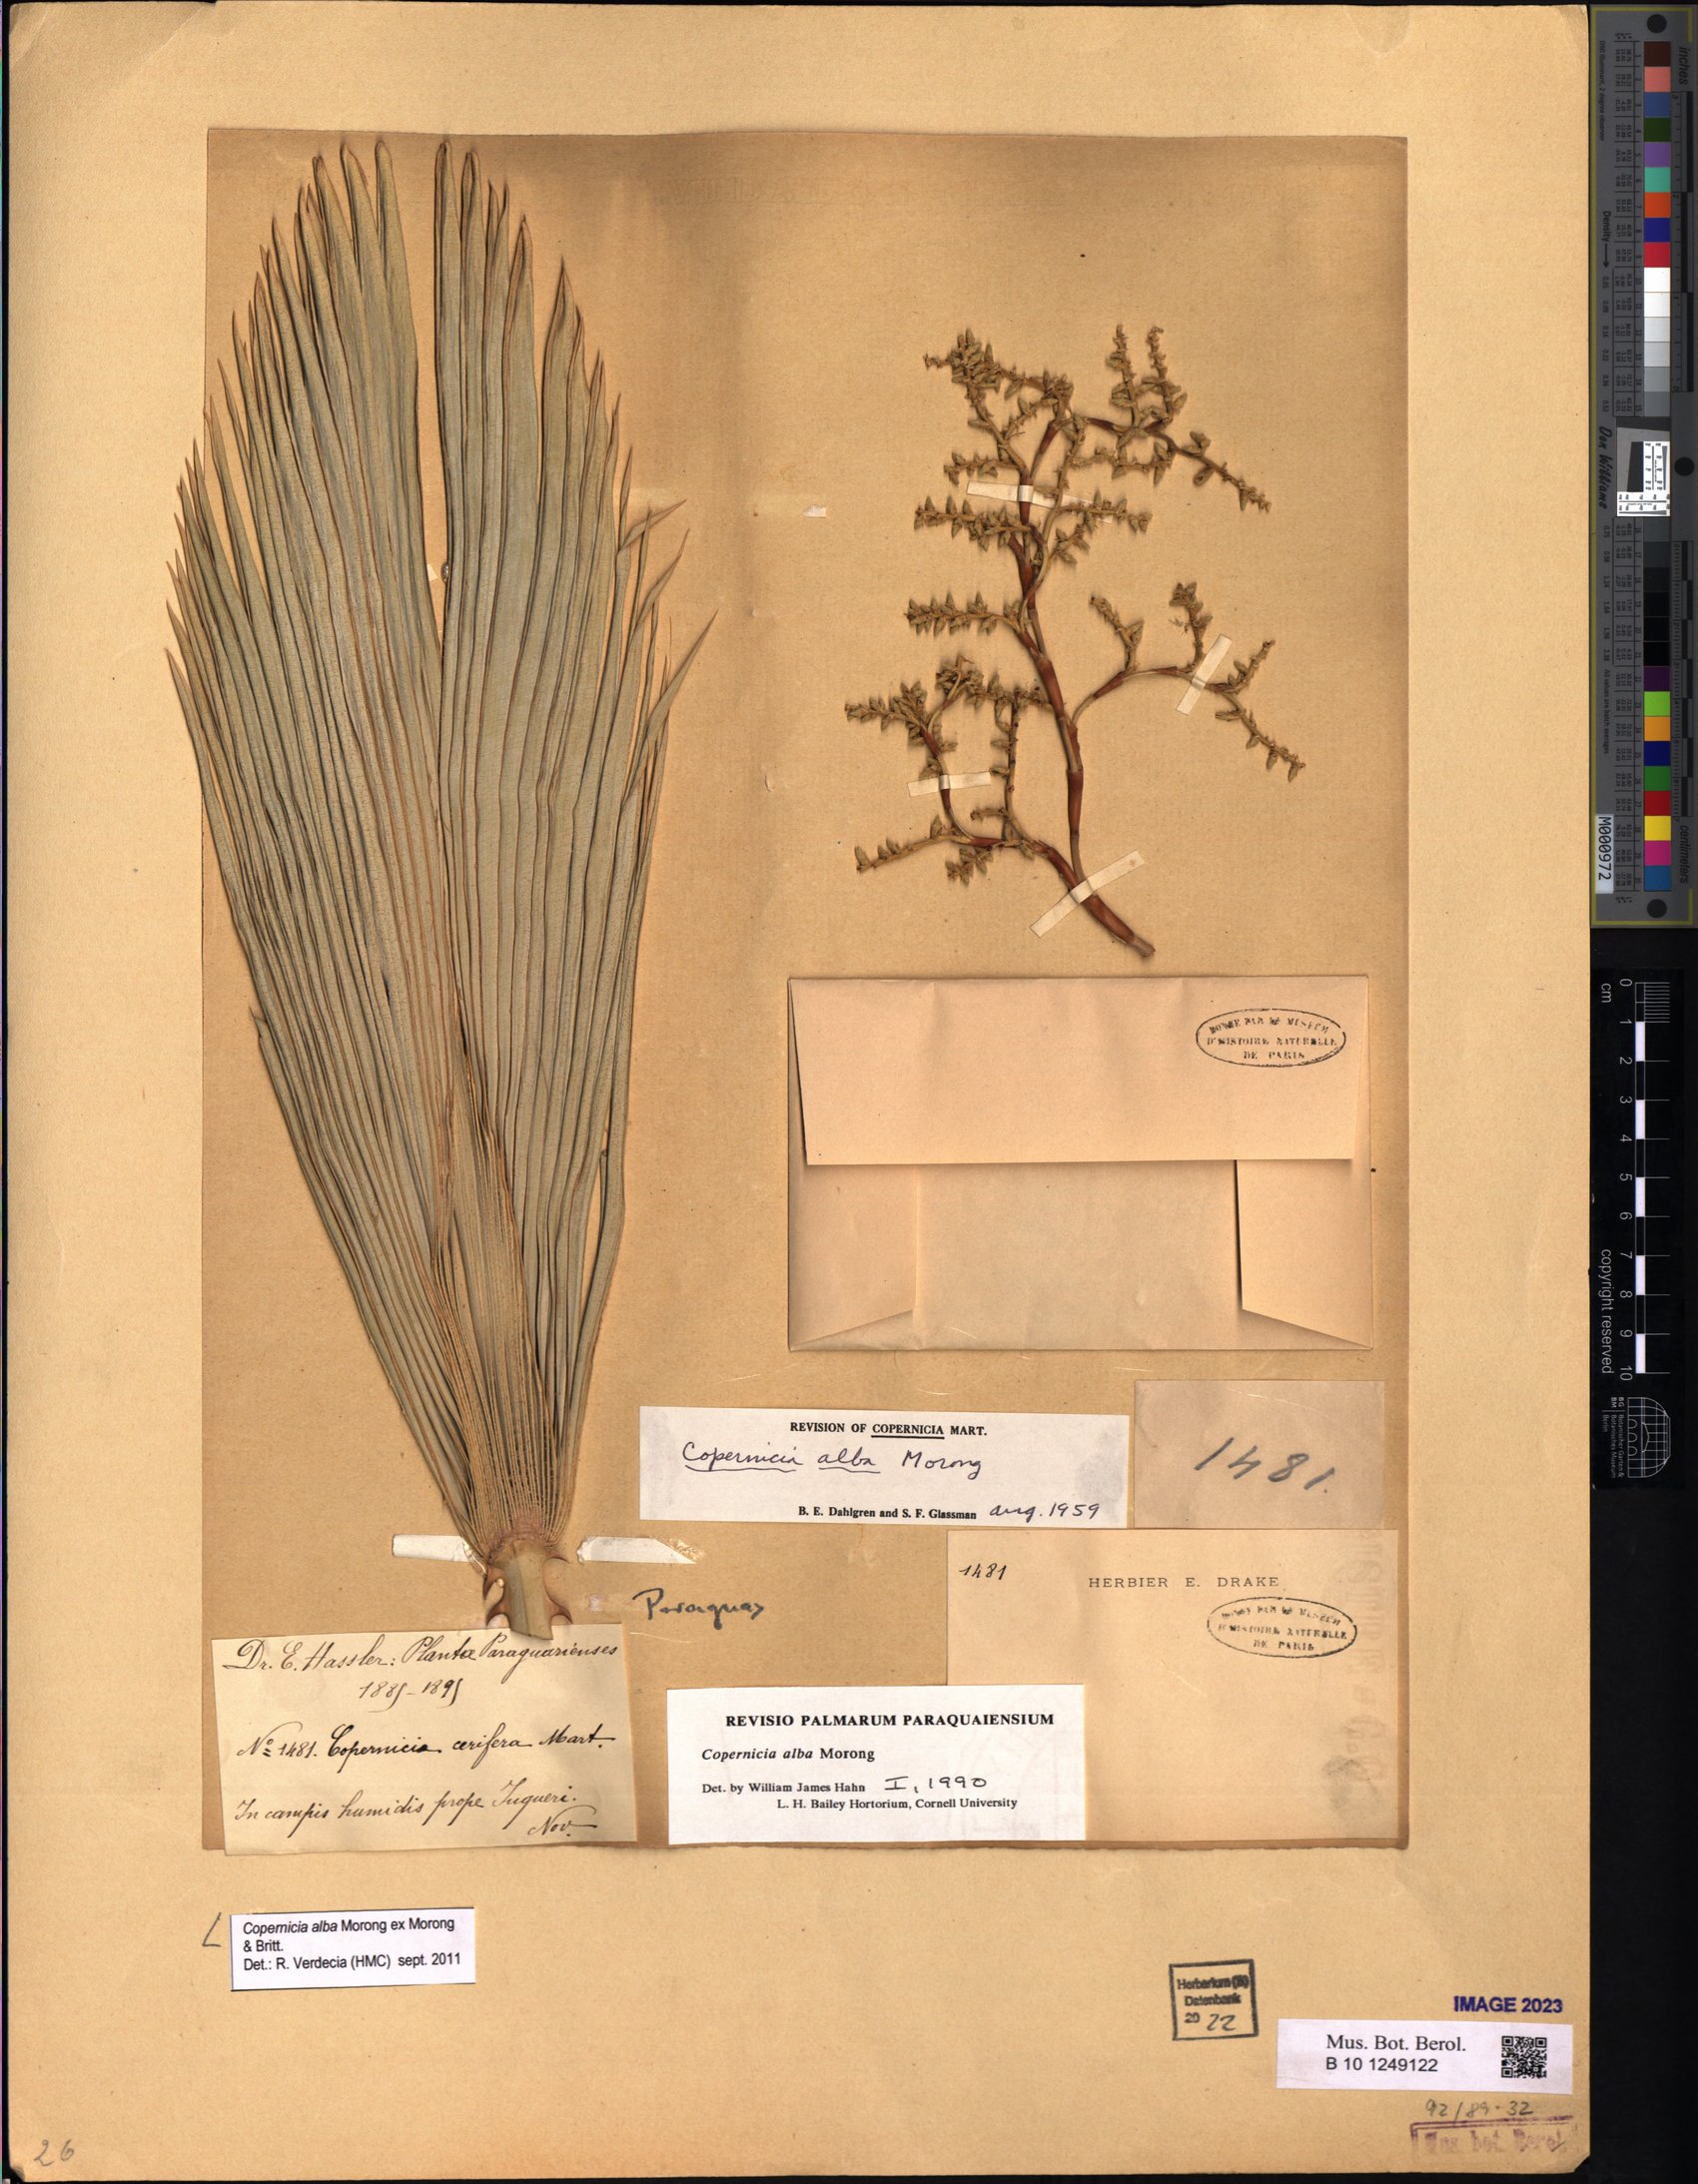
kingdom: Plantae
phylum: Tracheophyta
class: Liliopsida
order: Arecales
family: Arecaceae
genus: Copernicia
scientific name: Copernicia alba
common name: Caranday palm
